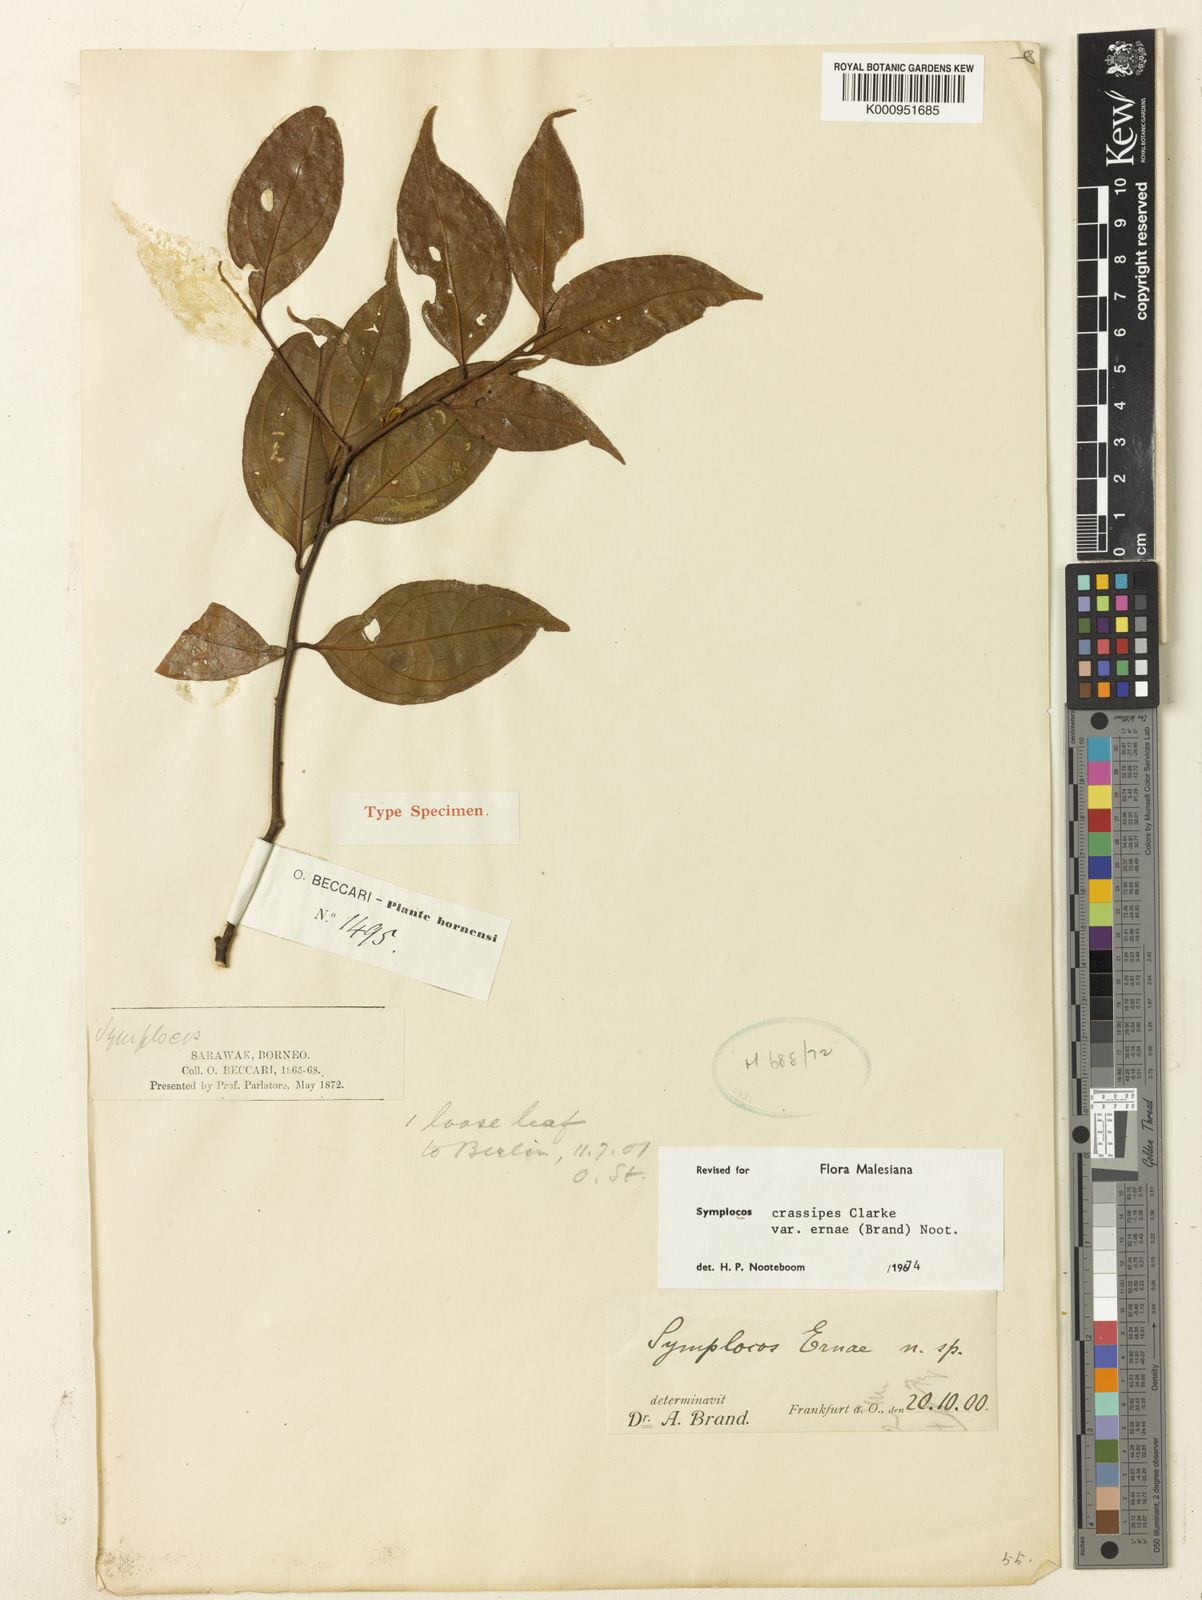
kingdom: Plantae
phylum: Tracheophyta
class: Magnoliopsida
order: Ericales
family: Symplocaceae
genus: Symplocos
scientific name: Symplocos crassipes
